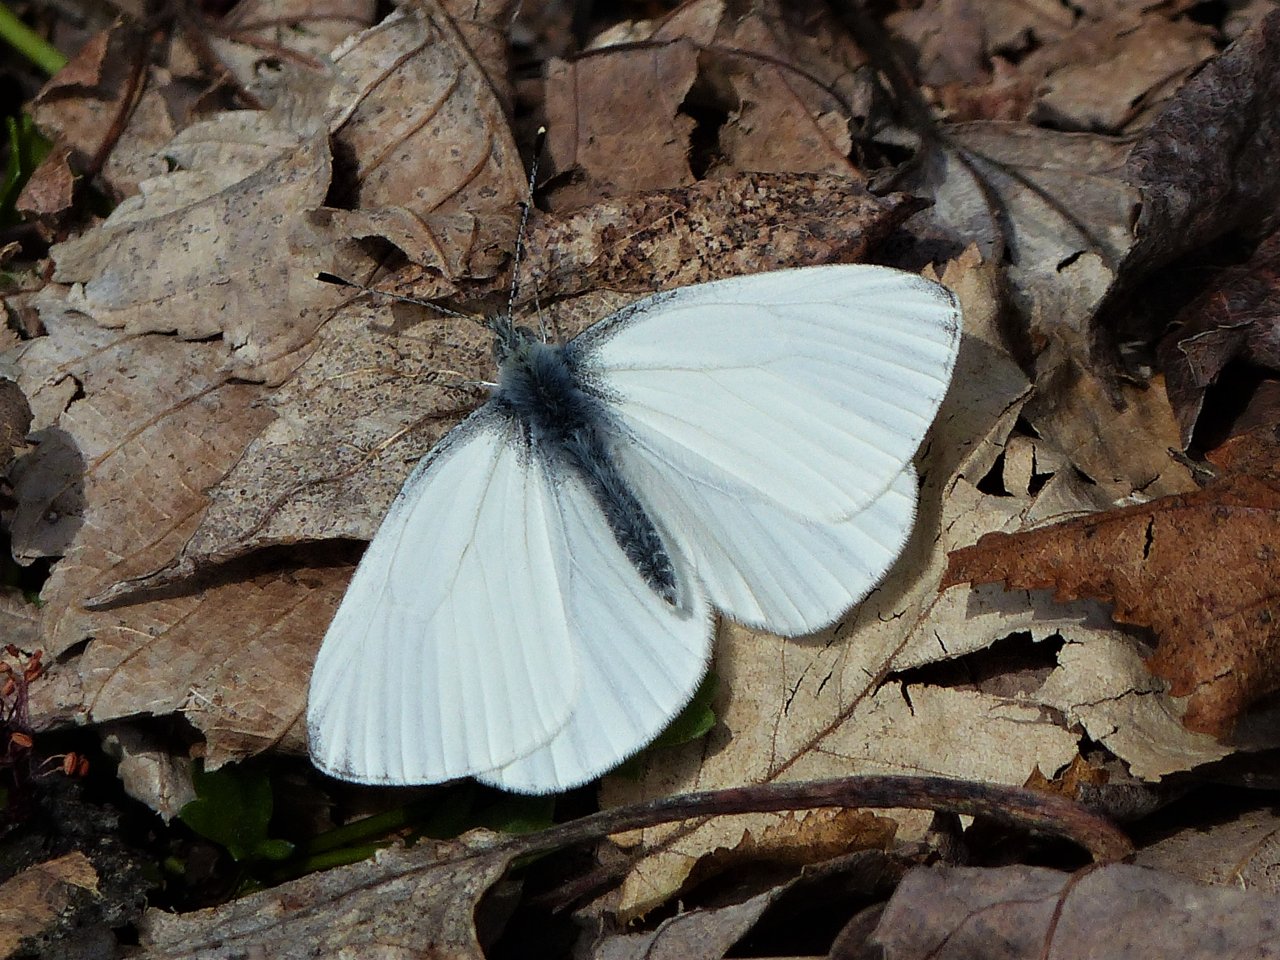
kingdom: Animalia
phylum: Arthropoda
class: Insecta
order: Lepidoptera
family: Pieridae
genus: Pieris
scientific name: Pieris oleracea
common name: Mustard White
